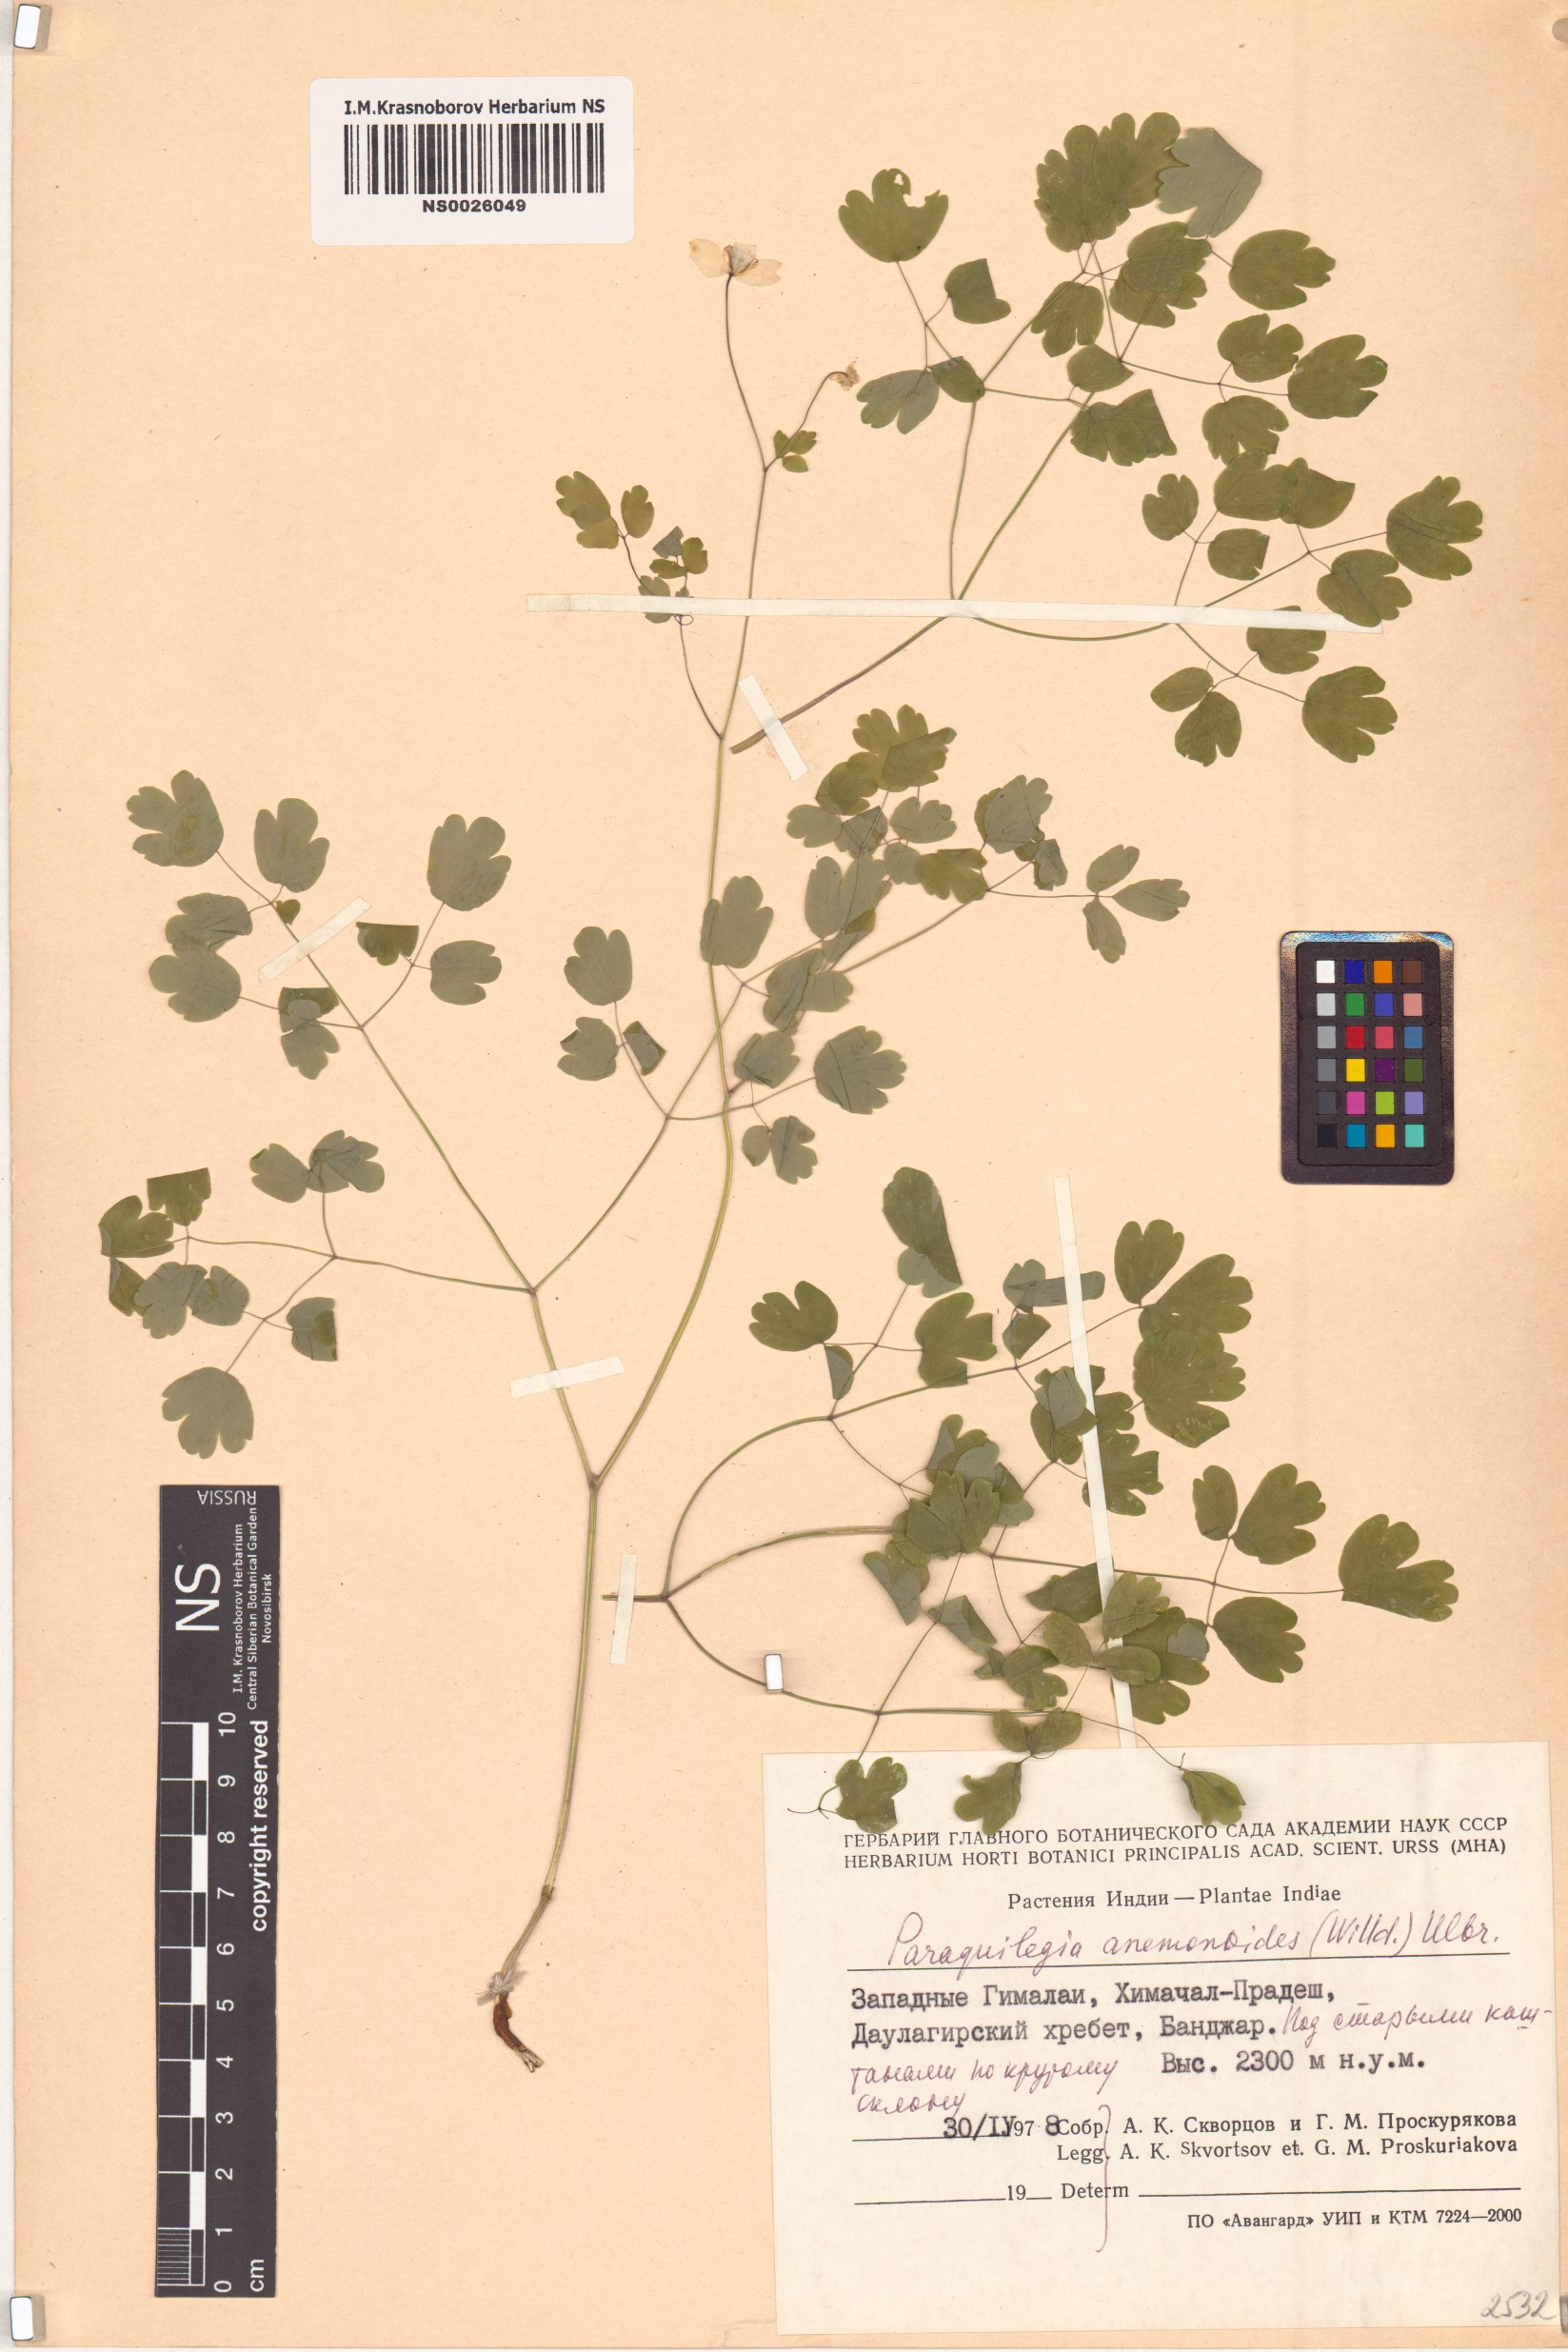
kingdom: Plantae
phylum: Tracheophyta
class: Magnoliopsida
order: Ranunculales
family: Ranunculaceae
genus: Paraquilegia
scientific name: Paraquilegia anemonoides
